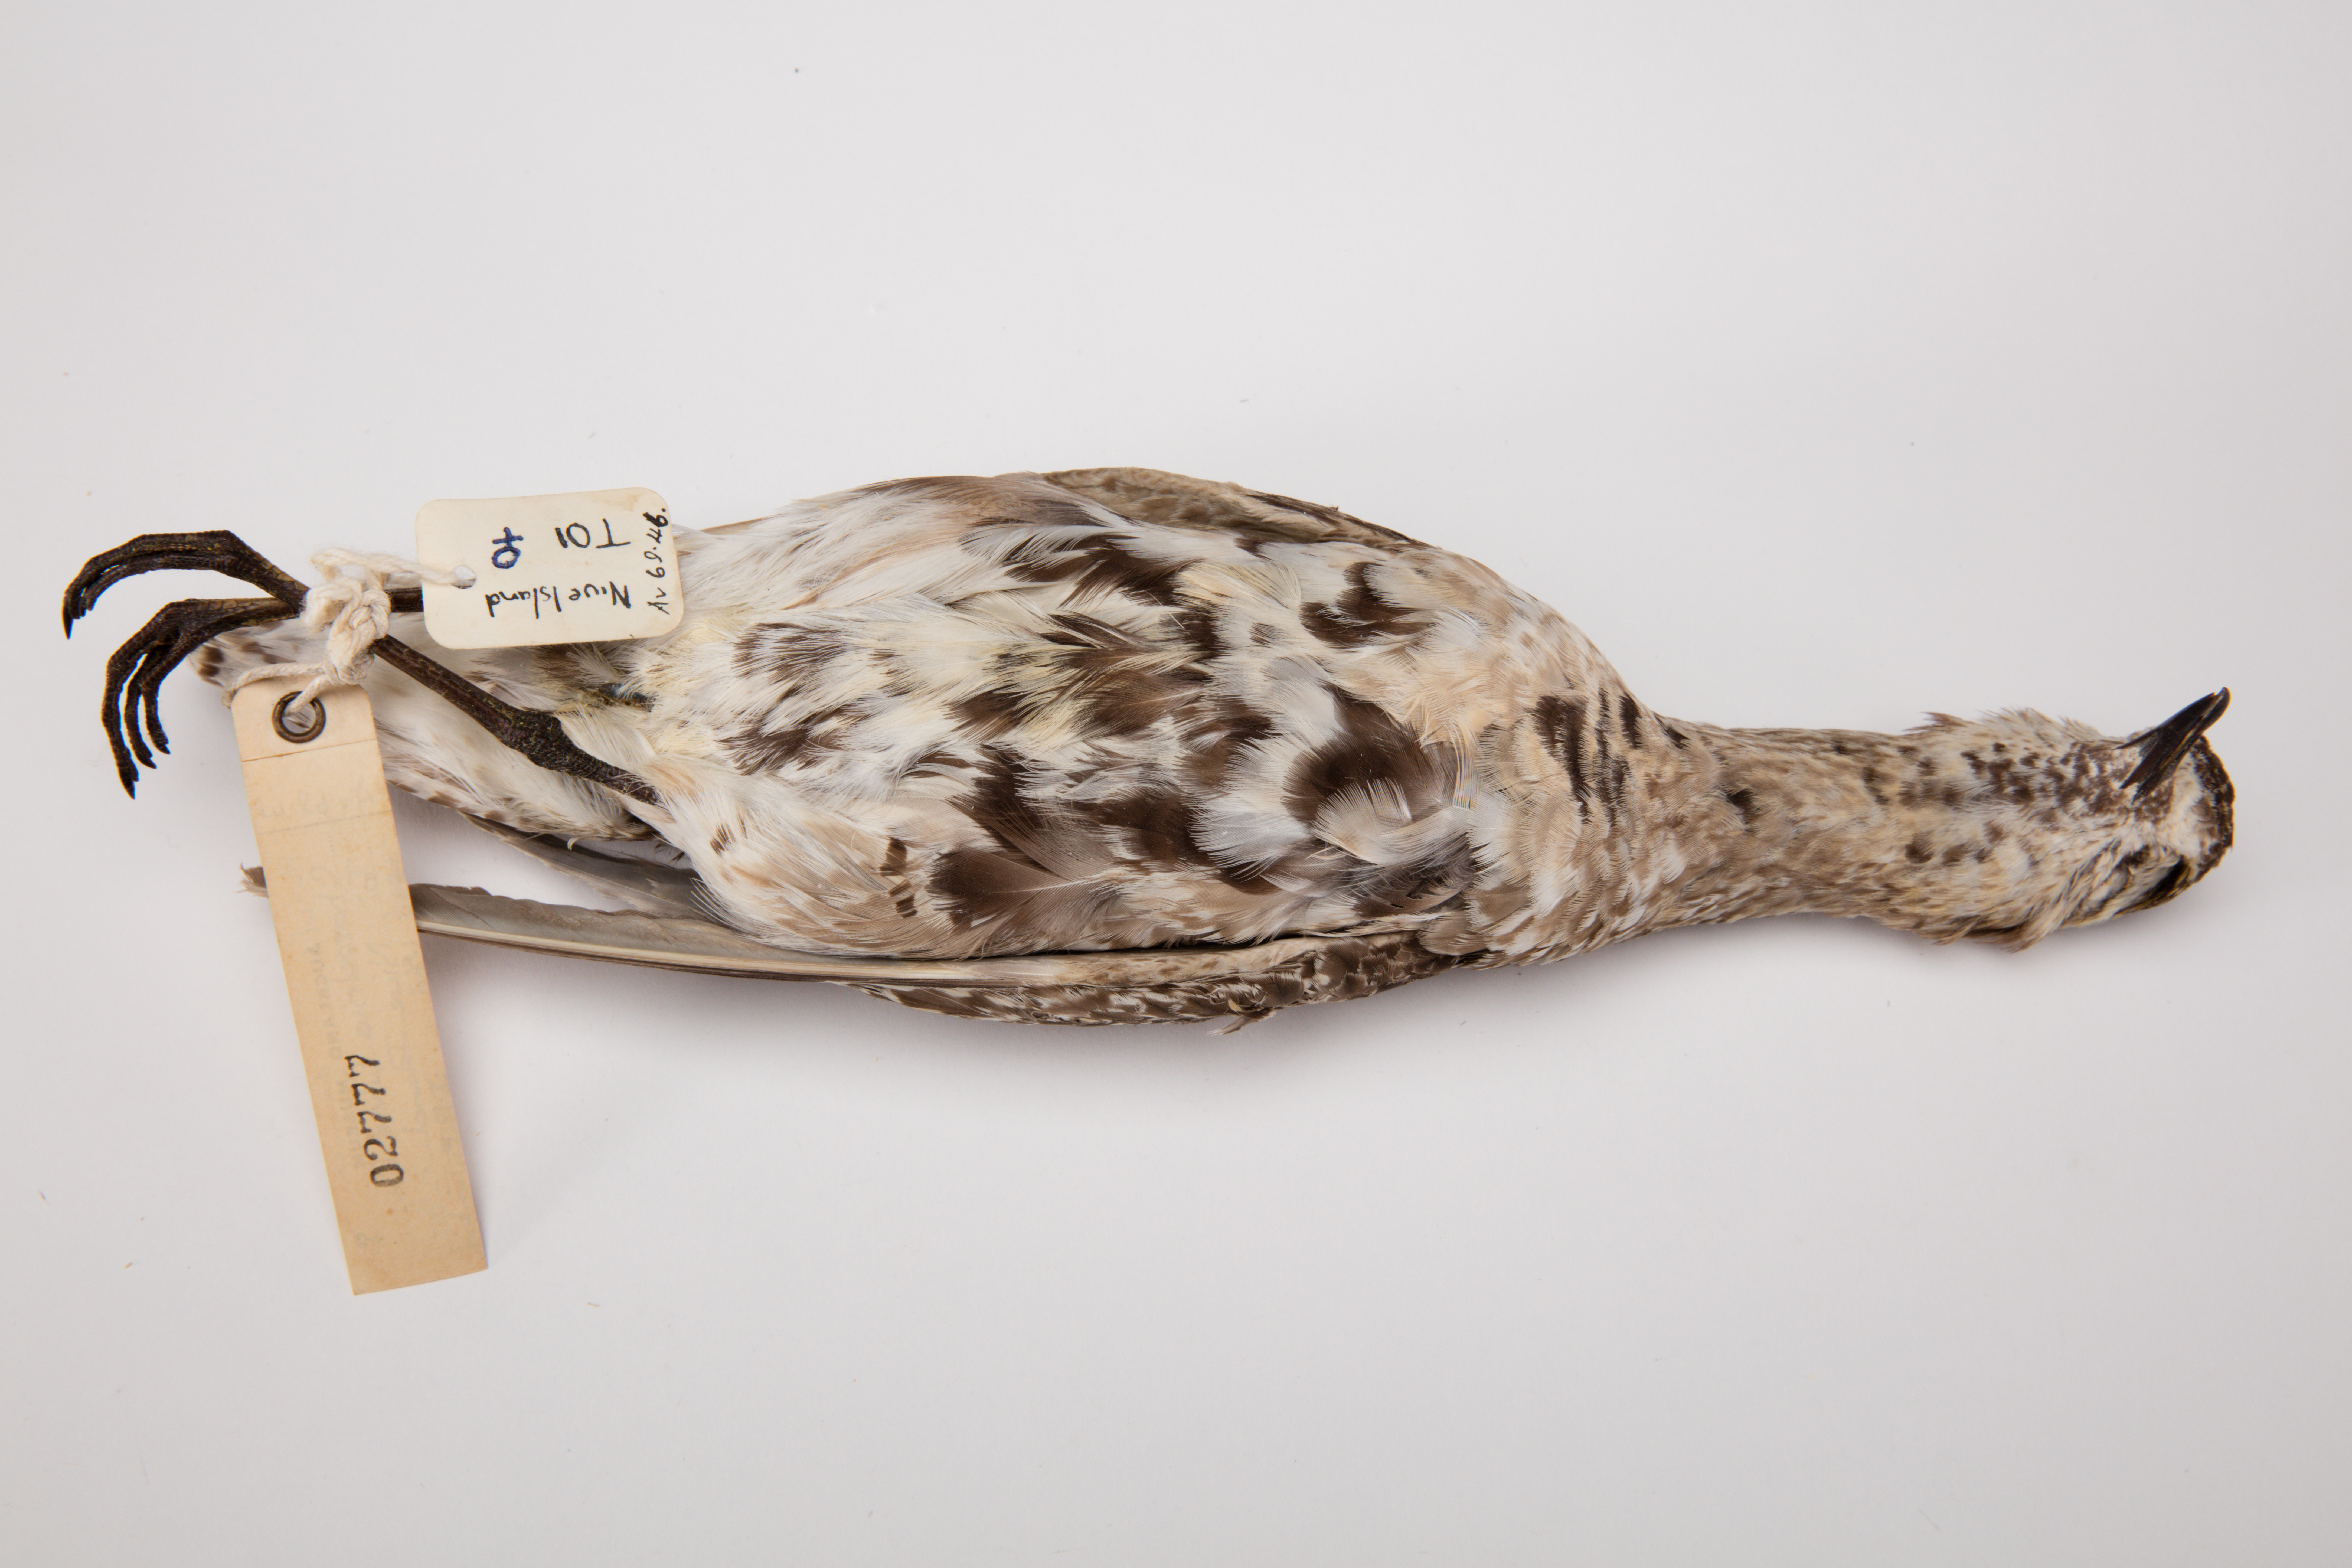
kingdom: Animalia
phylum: Chordata
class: Aves
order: Charadriiformes
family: Charadriidae
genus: Pluvialis
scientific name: Pluvialis fulva
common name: Pacific golden plover
